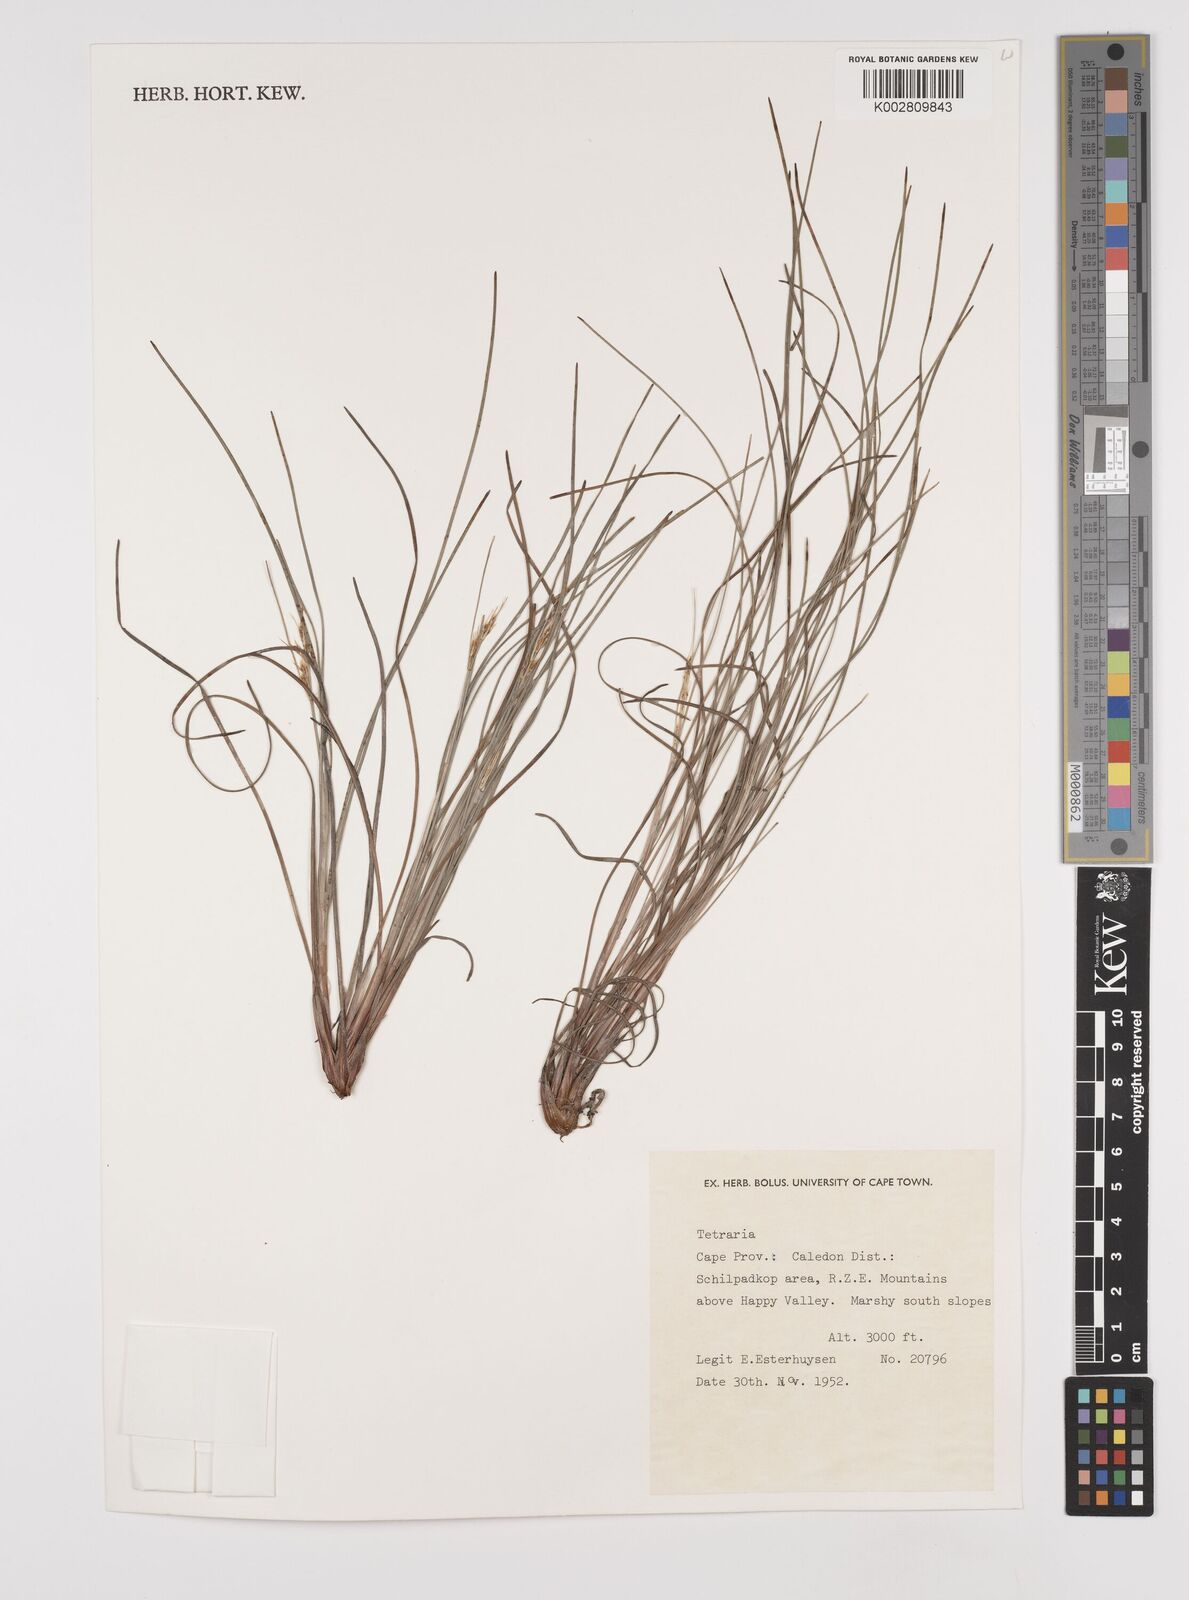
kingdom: Plantae
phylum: Tracheophyta
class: Liliopsida
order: Poales
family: Cyperaceae
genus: Schoenus
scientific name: Schoenus
